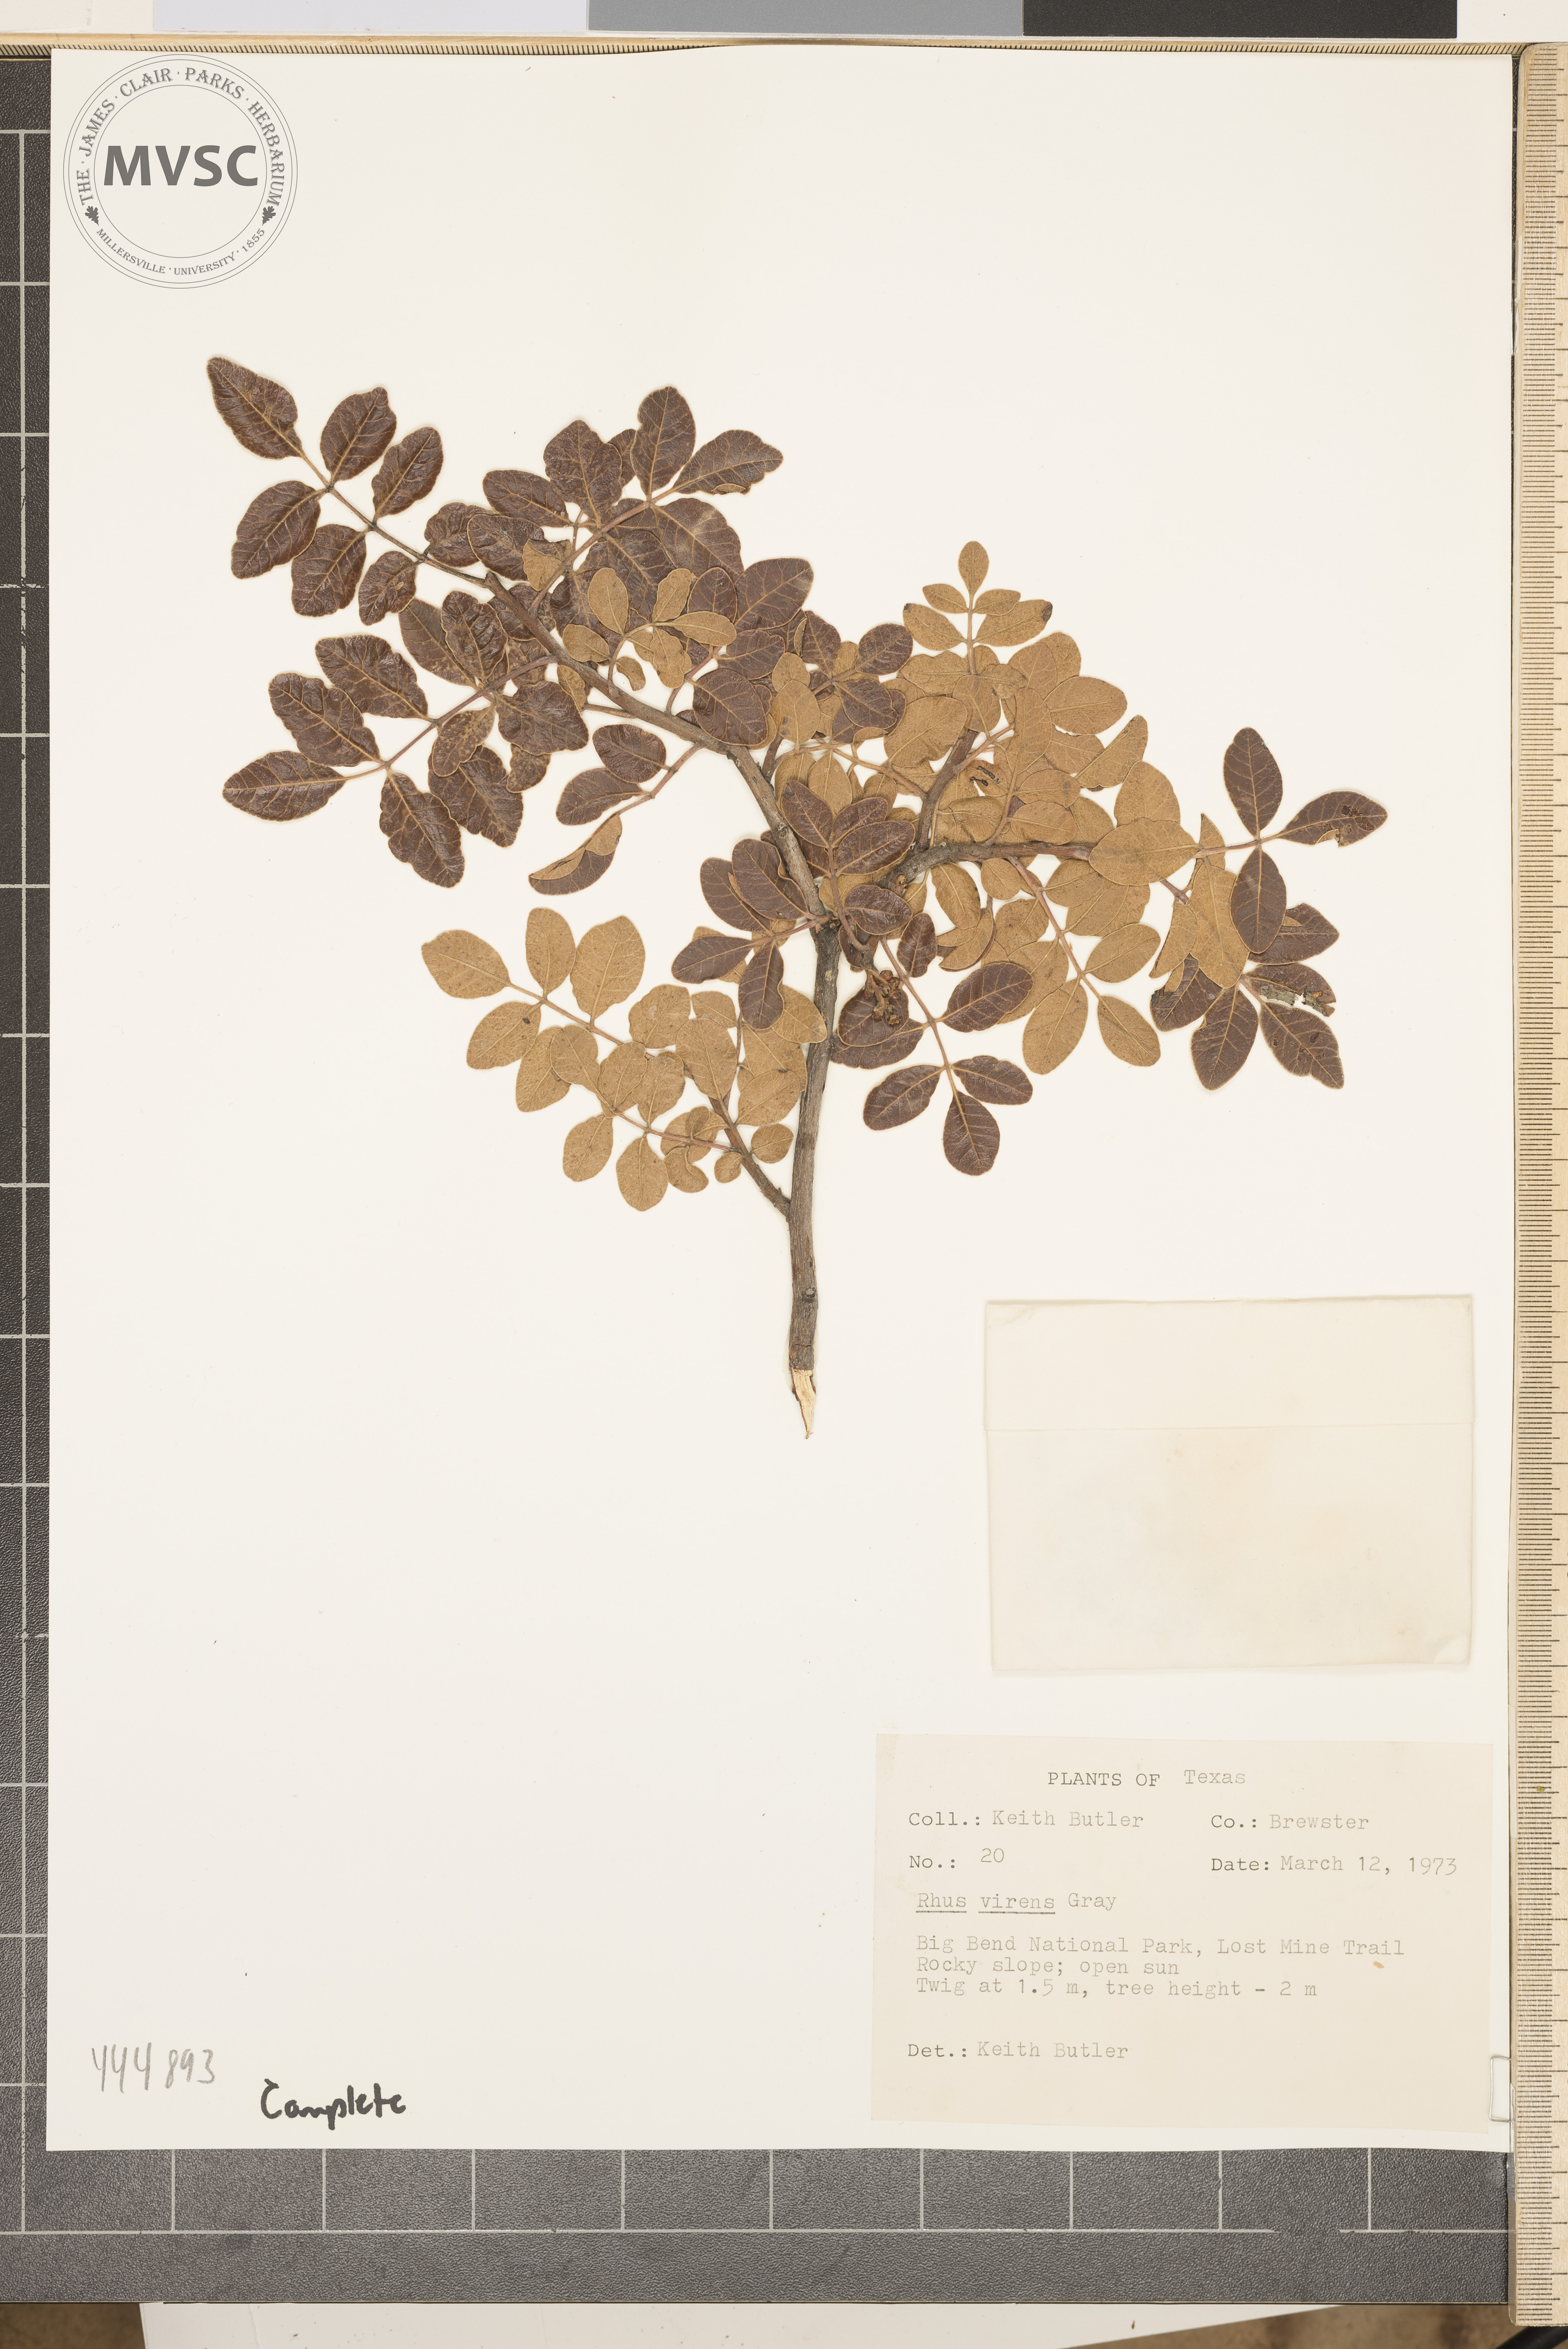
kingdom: Plantae
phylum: Tracheophyta
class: Magnoliopsida
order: Sapindales
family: Anacardiaceae
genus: Rhus
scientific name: Rhus virens
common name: Evergreen sumac
